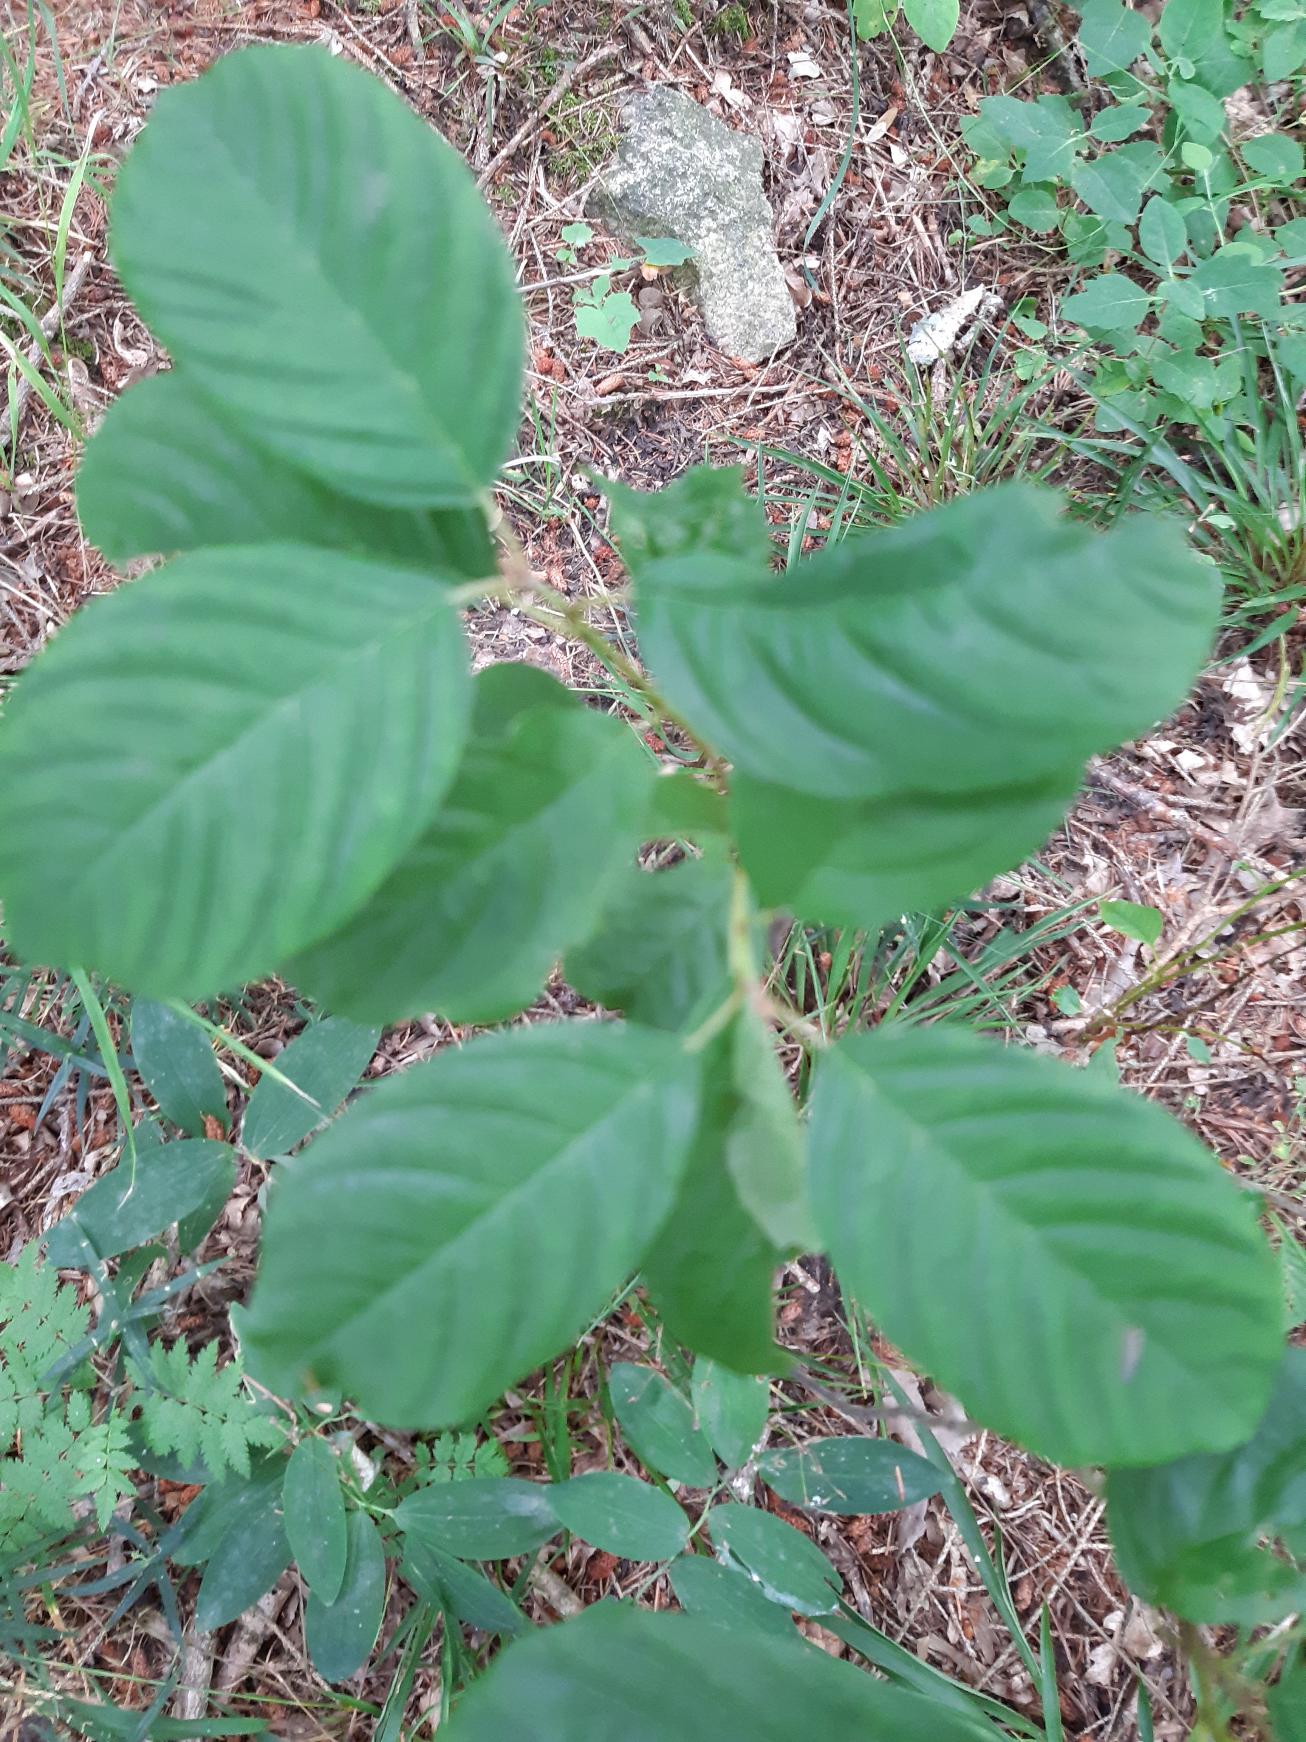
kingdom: Plantae
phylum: Tracheophyta
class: Magnoliopsida
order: Rosales
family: Rhamnaceae
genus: Frangula
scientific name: Frangula alnus
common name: Tørst
